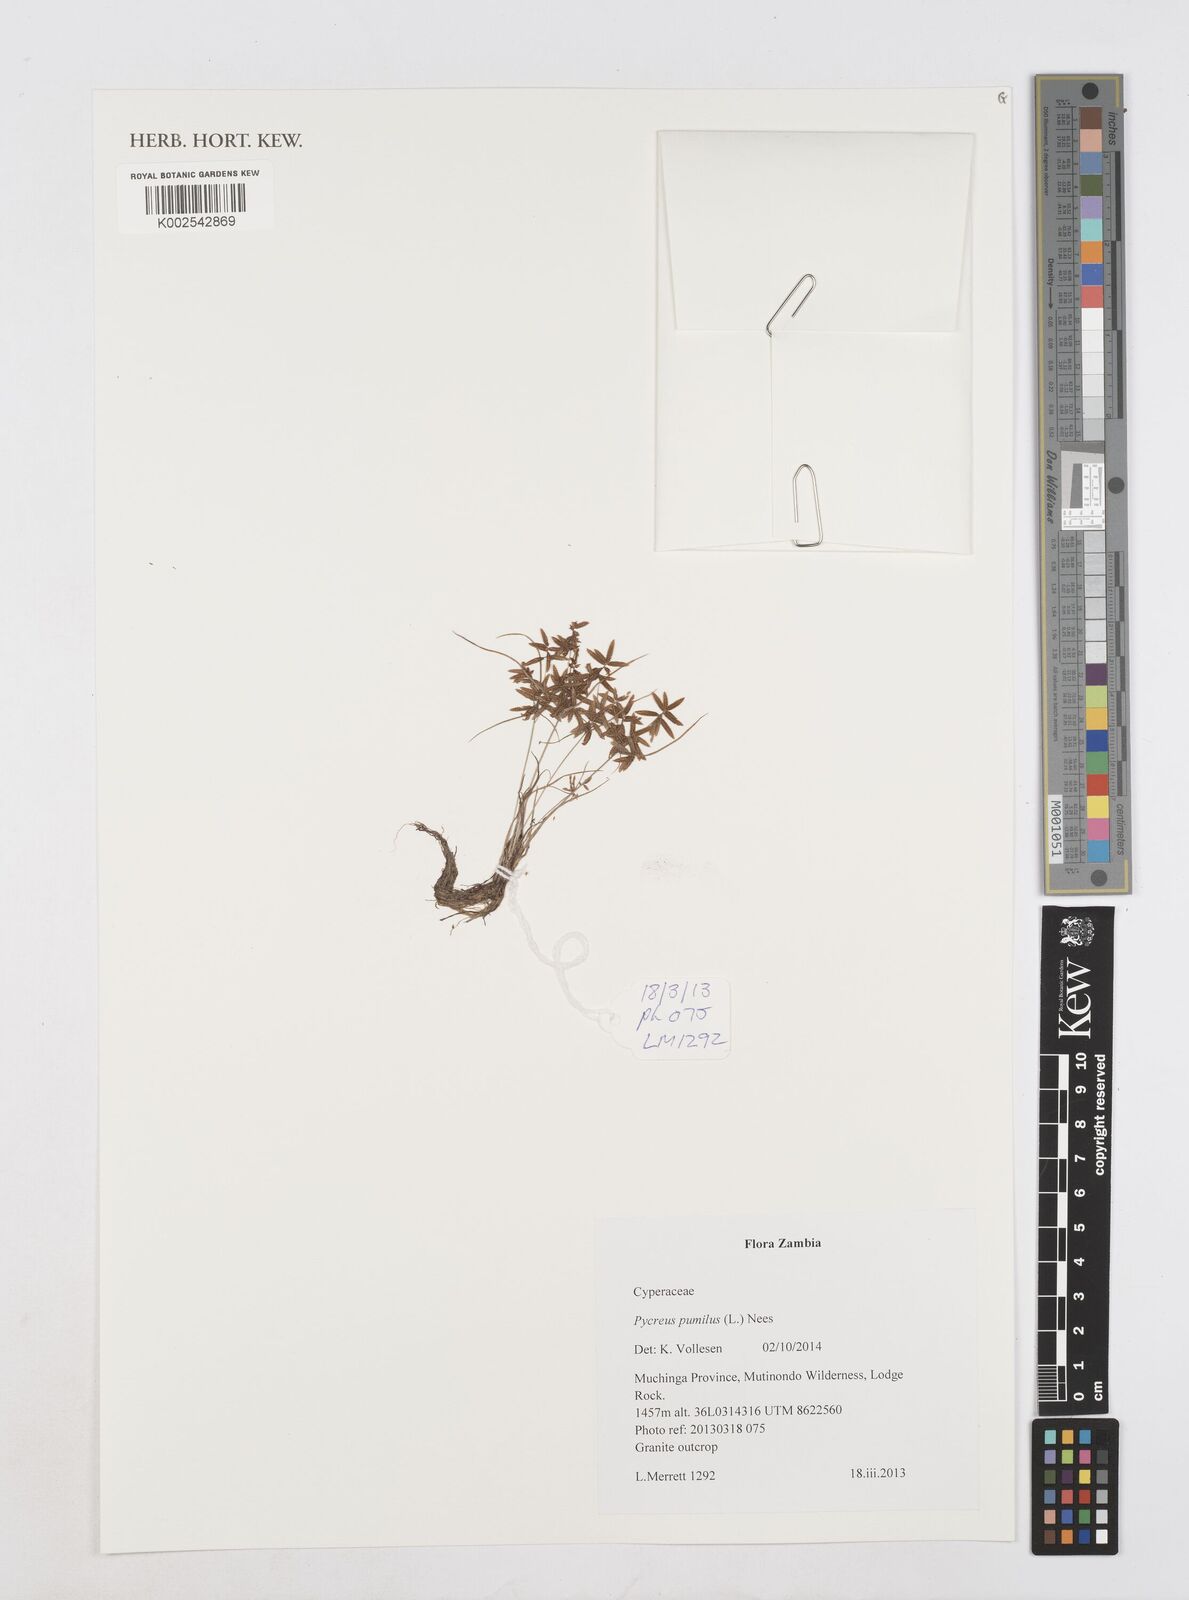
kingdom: Plantae
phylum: Tracheophyta
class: Liliopsida
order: Poales
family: Cyperaceae
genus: Cyperus
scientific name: Cyperus pumilus
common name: Low flatsedge
